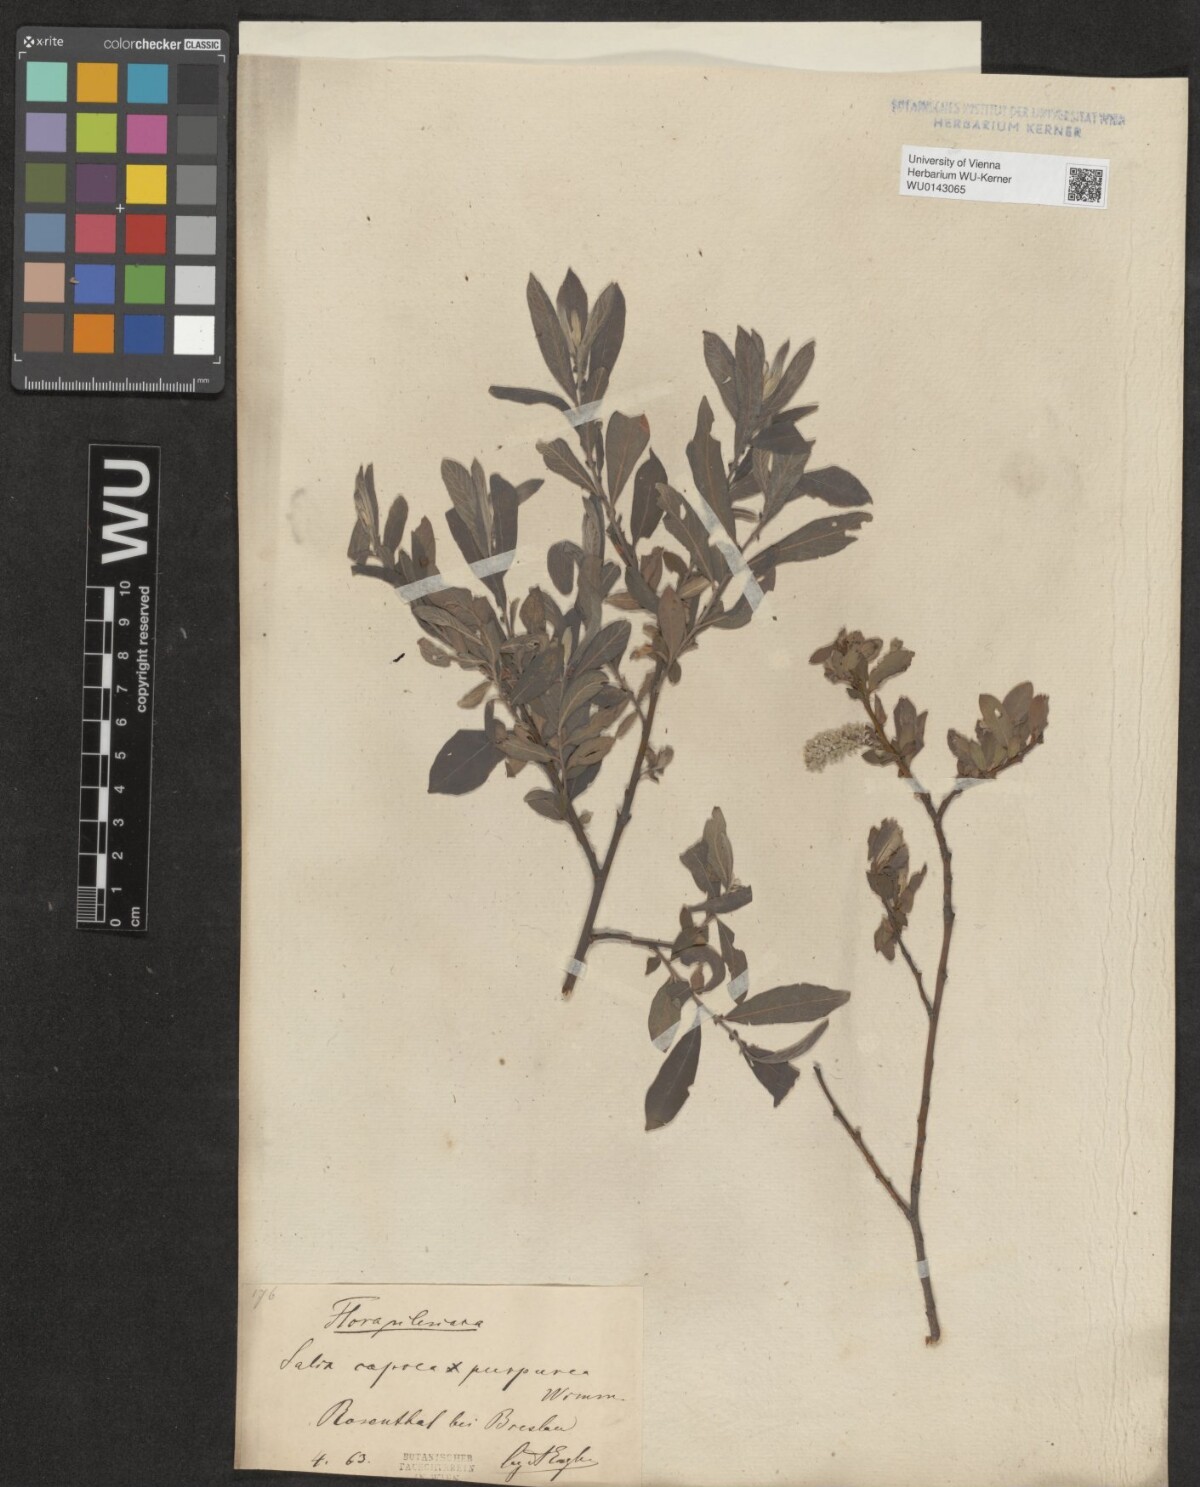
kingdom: Plantae
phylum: Tracheophyta
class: Magnoliopsida
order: Malpighiales
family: Salicaceae
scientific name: Salicaceae
